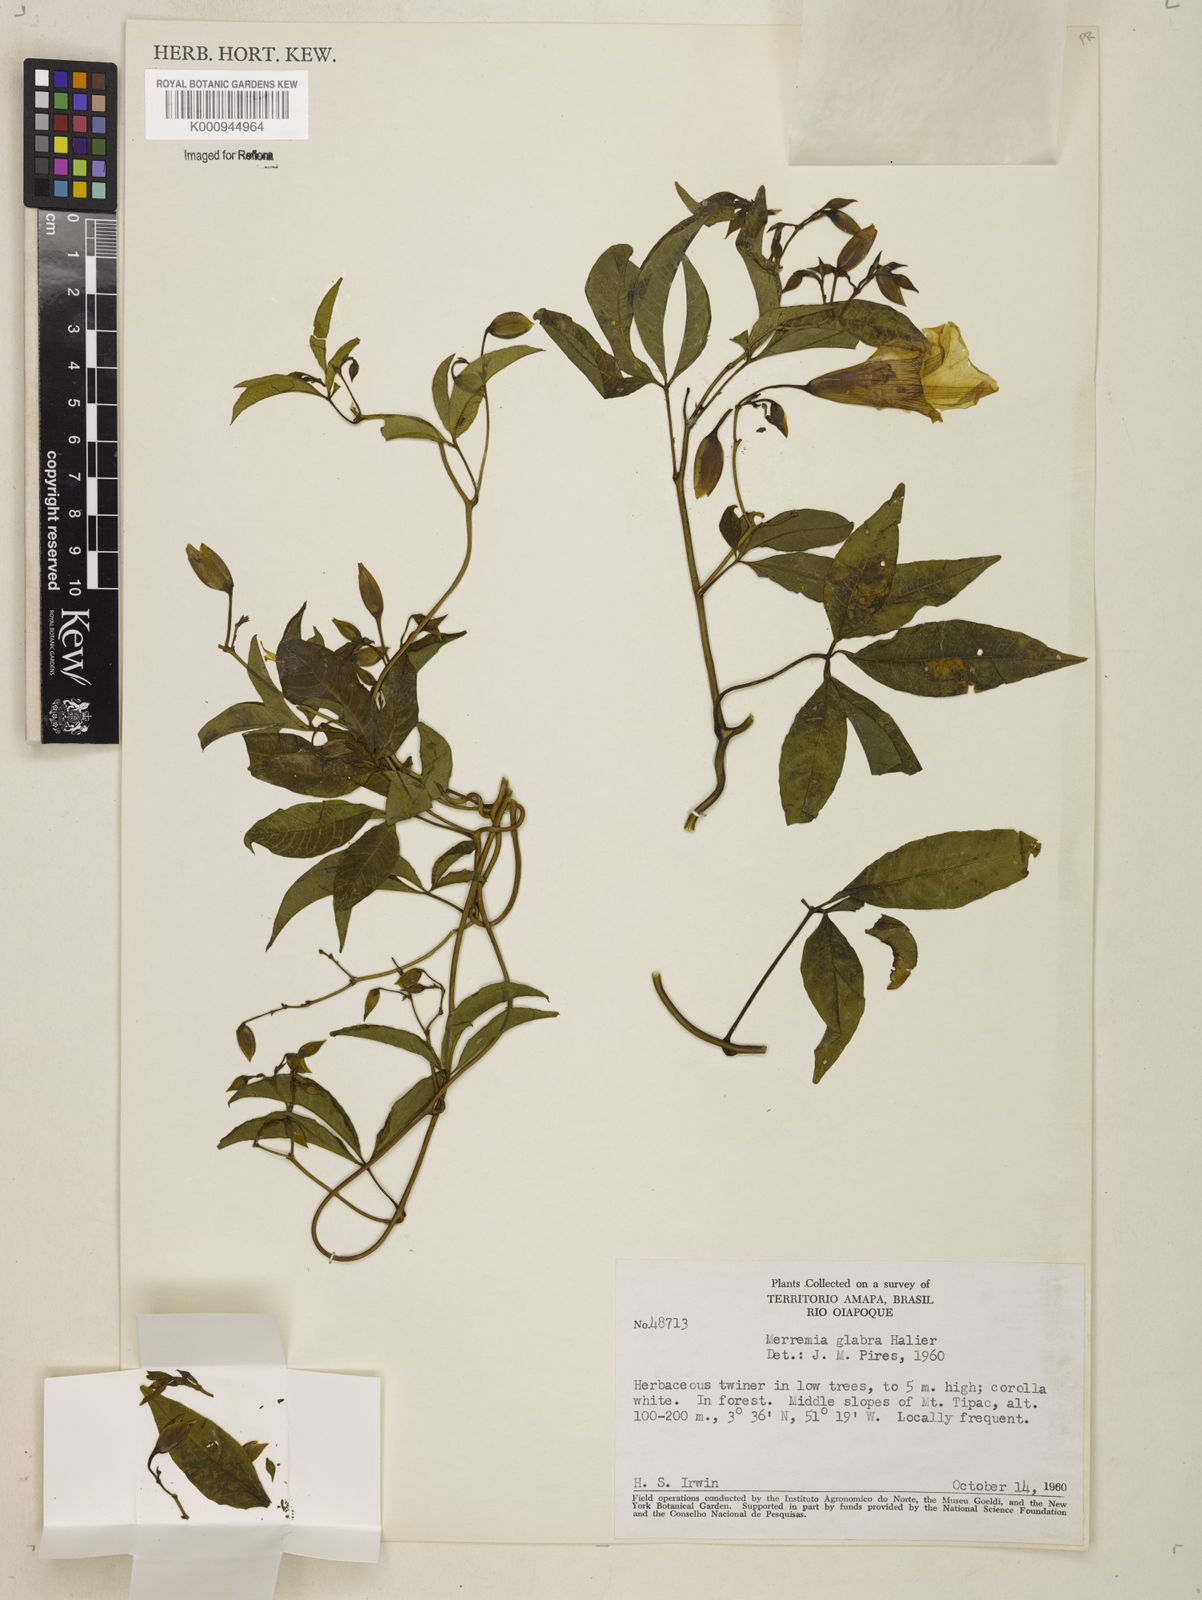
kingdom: Plantae
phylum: Tracheophyta
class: Magnoliopsida
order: Solanales
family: Convolvulaceae
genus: Distimake
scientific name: Distimake macrocalyx
